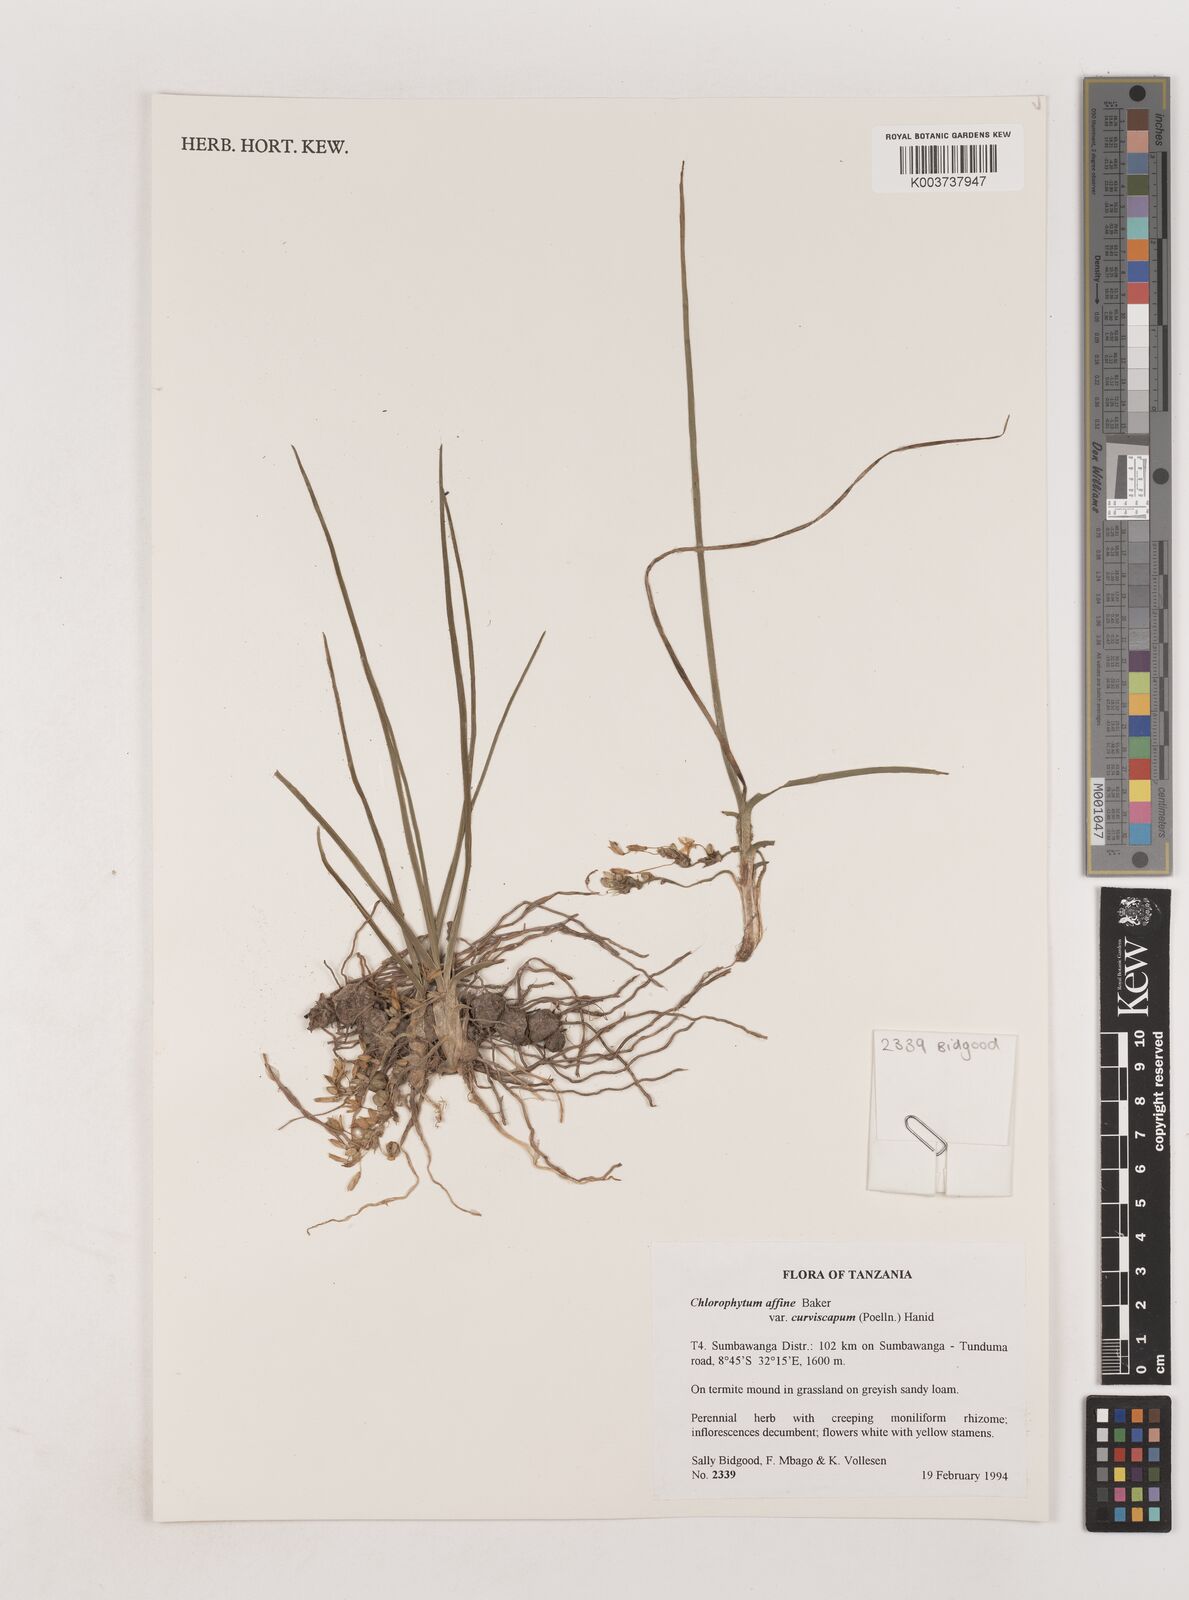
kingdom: Plantae
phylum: Tracheophyta
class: Liliopsida
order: Asparagales
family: Asparagaceae
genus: Chlorophytum
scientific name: Chlorophytum tordense
